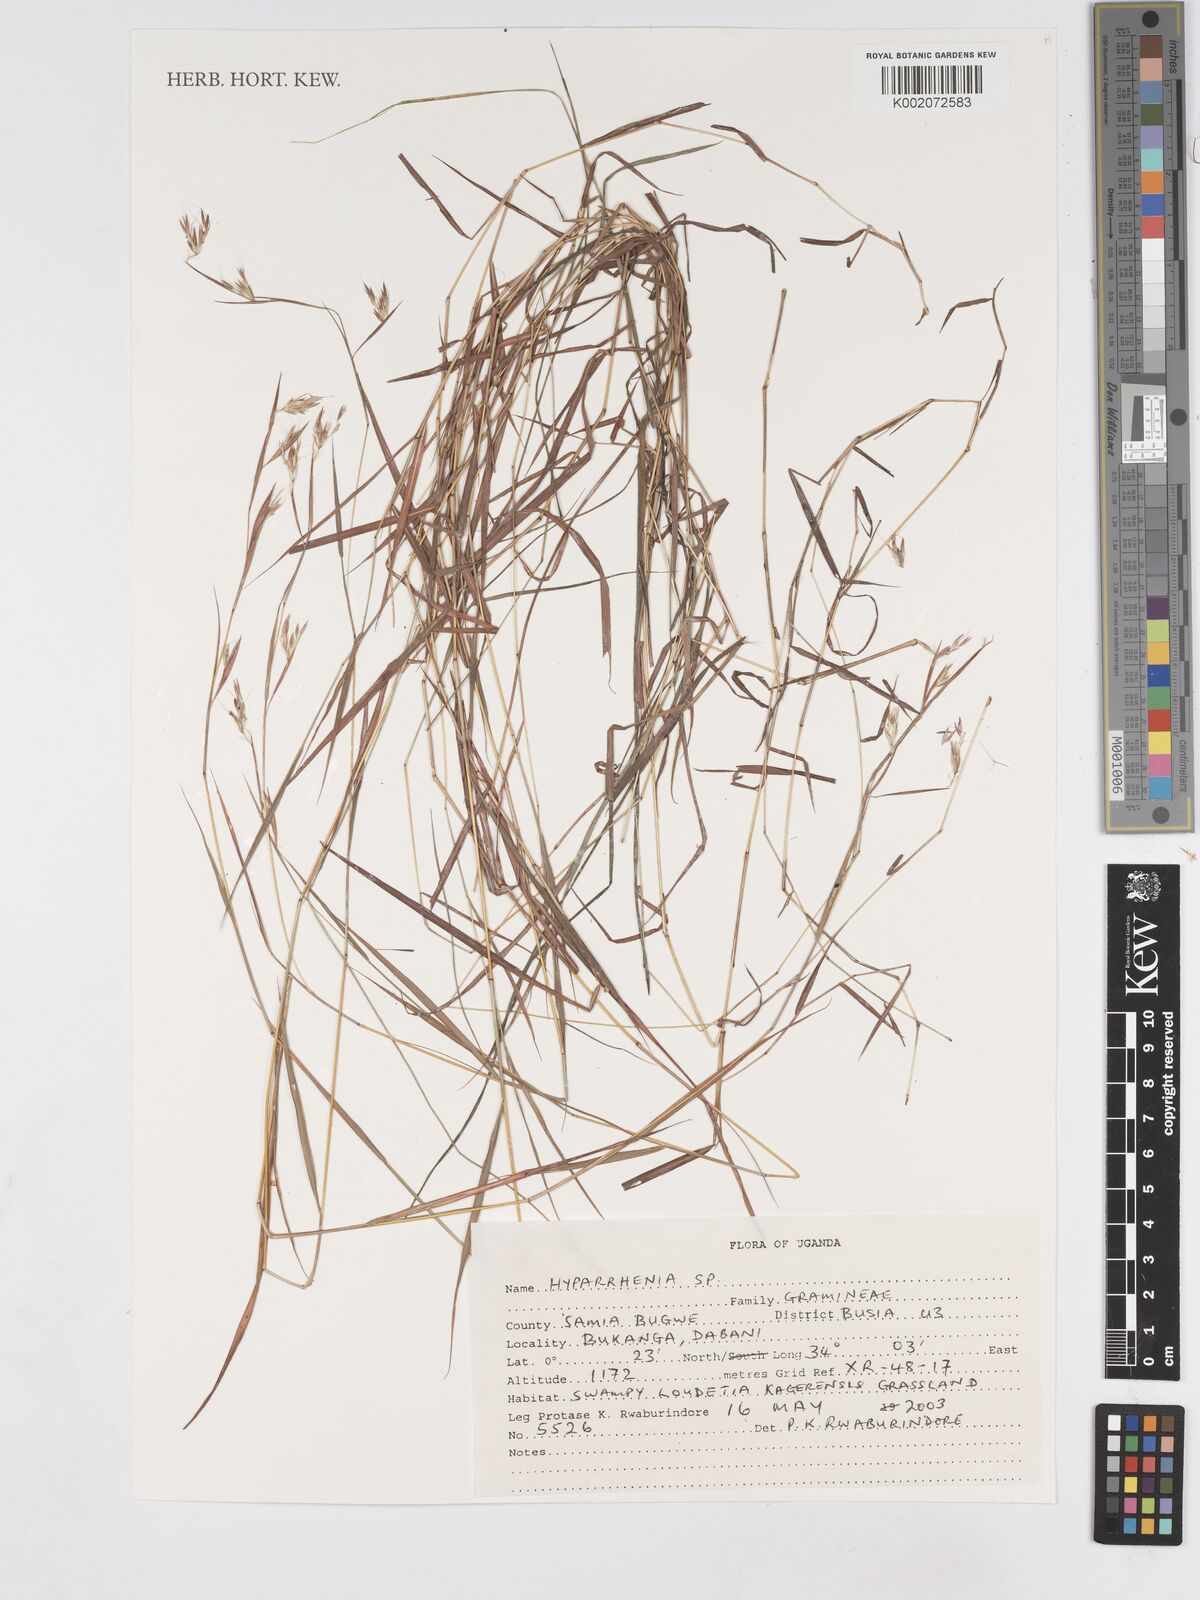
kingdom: Plantae
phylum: Tracheophyta
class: Liliopsida
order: Poales
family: Poaceae
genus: Hyparrhenia
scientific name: Hyparrhenia
